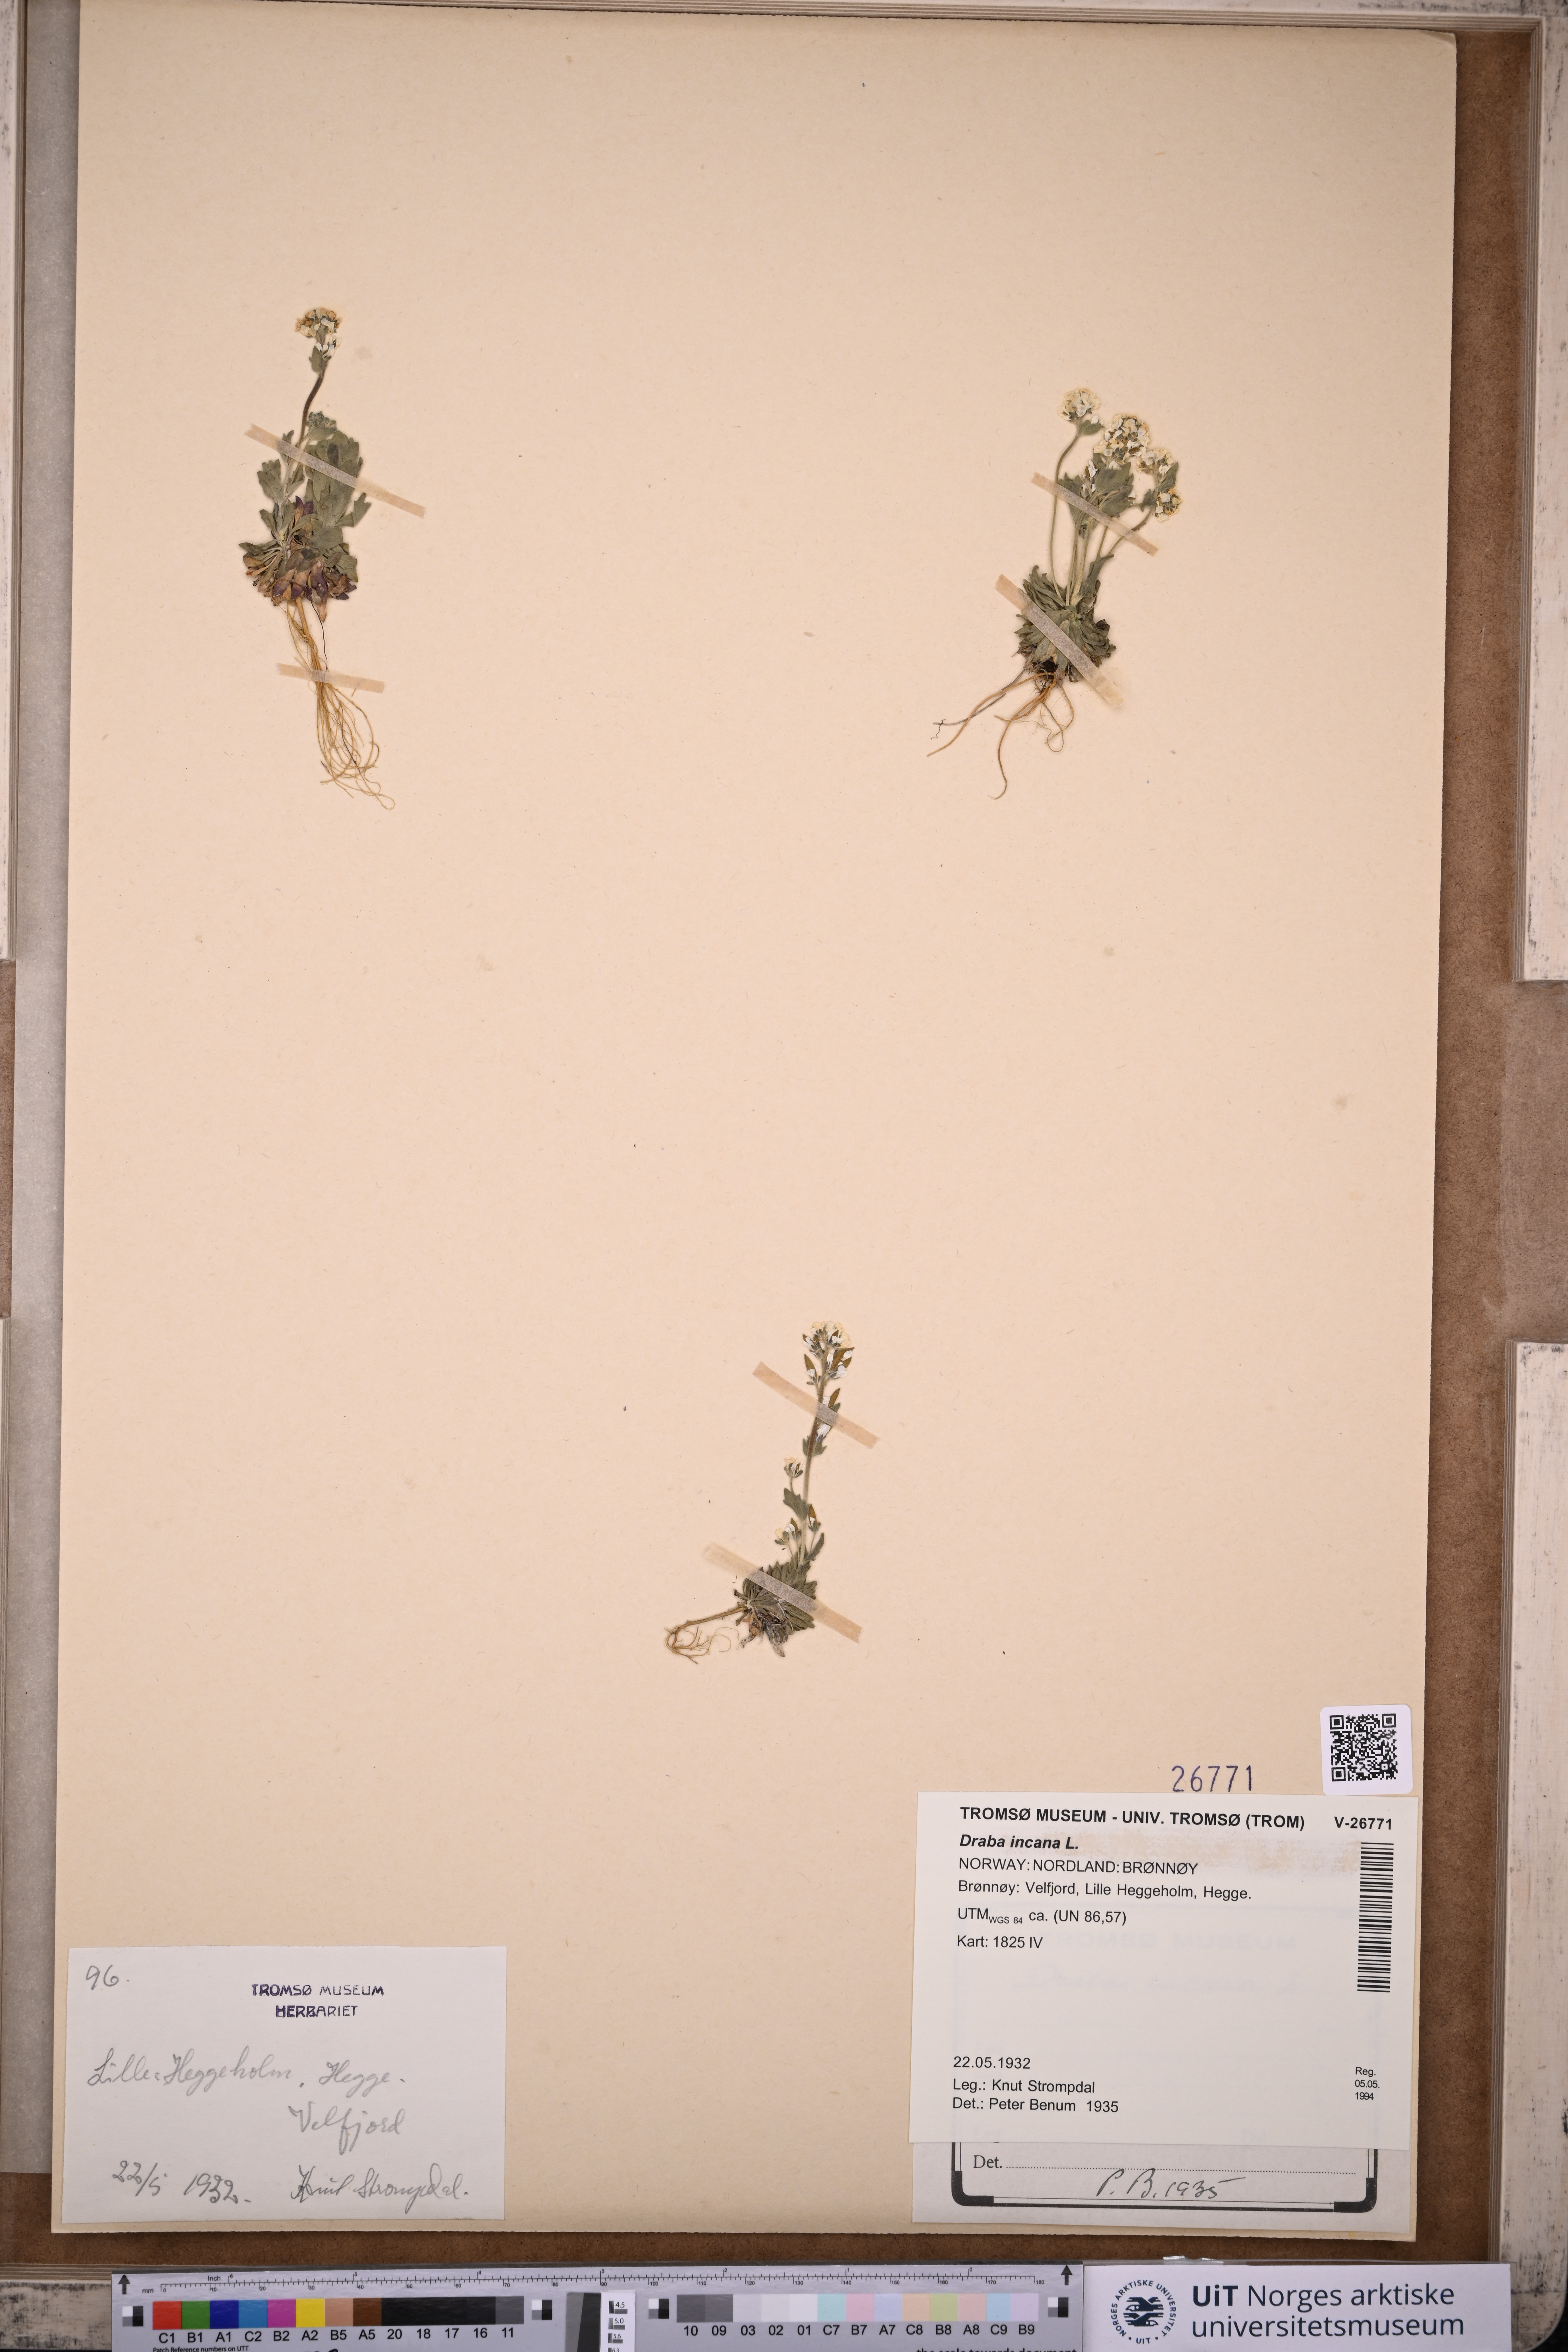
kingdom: Plantae
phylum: Tracheophyta
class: Magnoliopsida
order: Brassicales
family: Brassicaceae
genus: Draba
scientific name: Draba incana
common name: Hoary whitlow-grass
